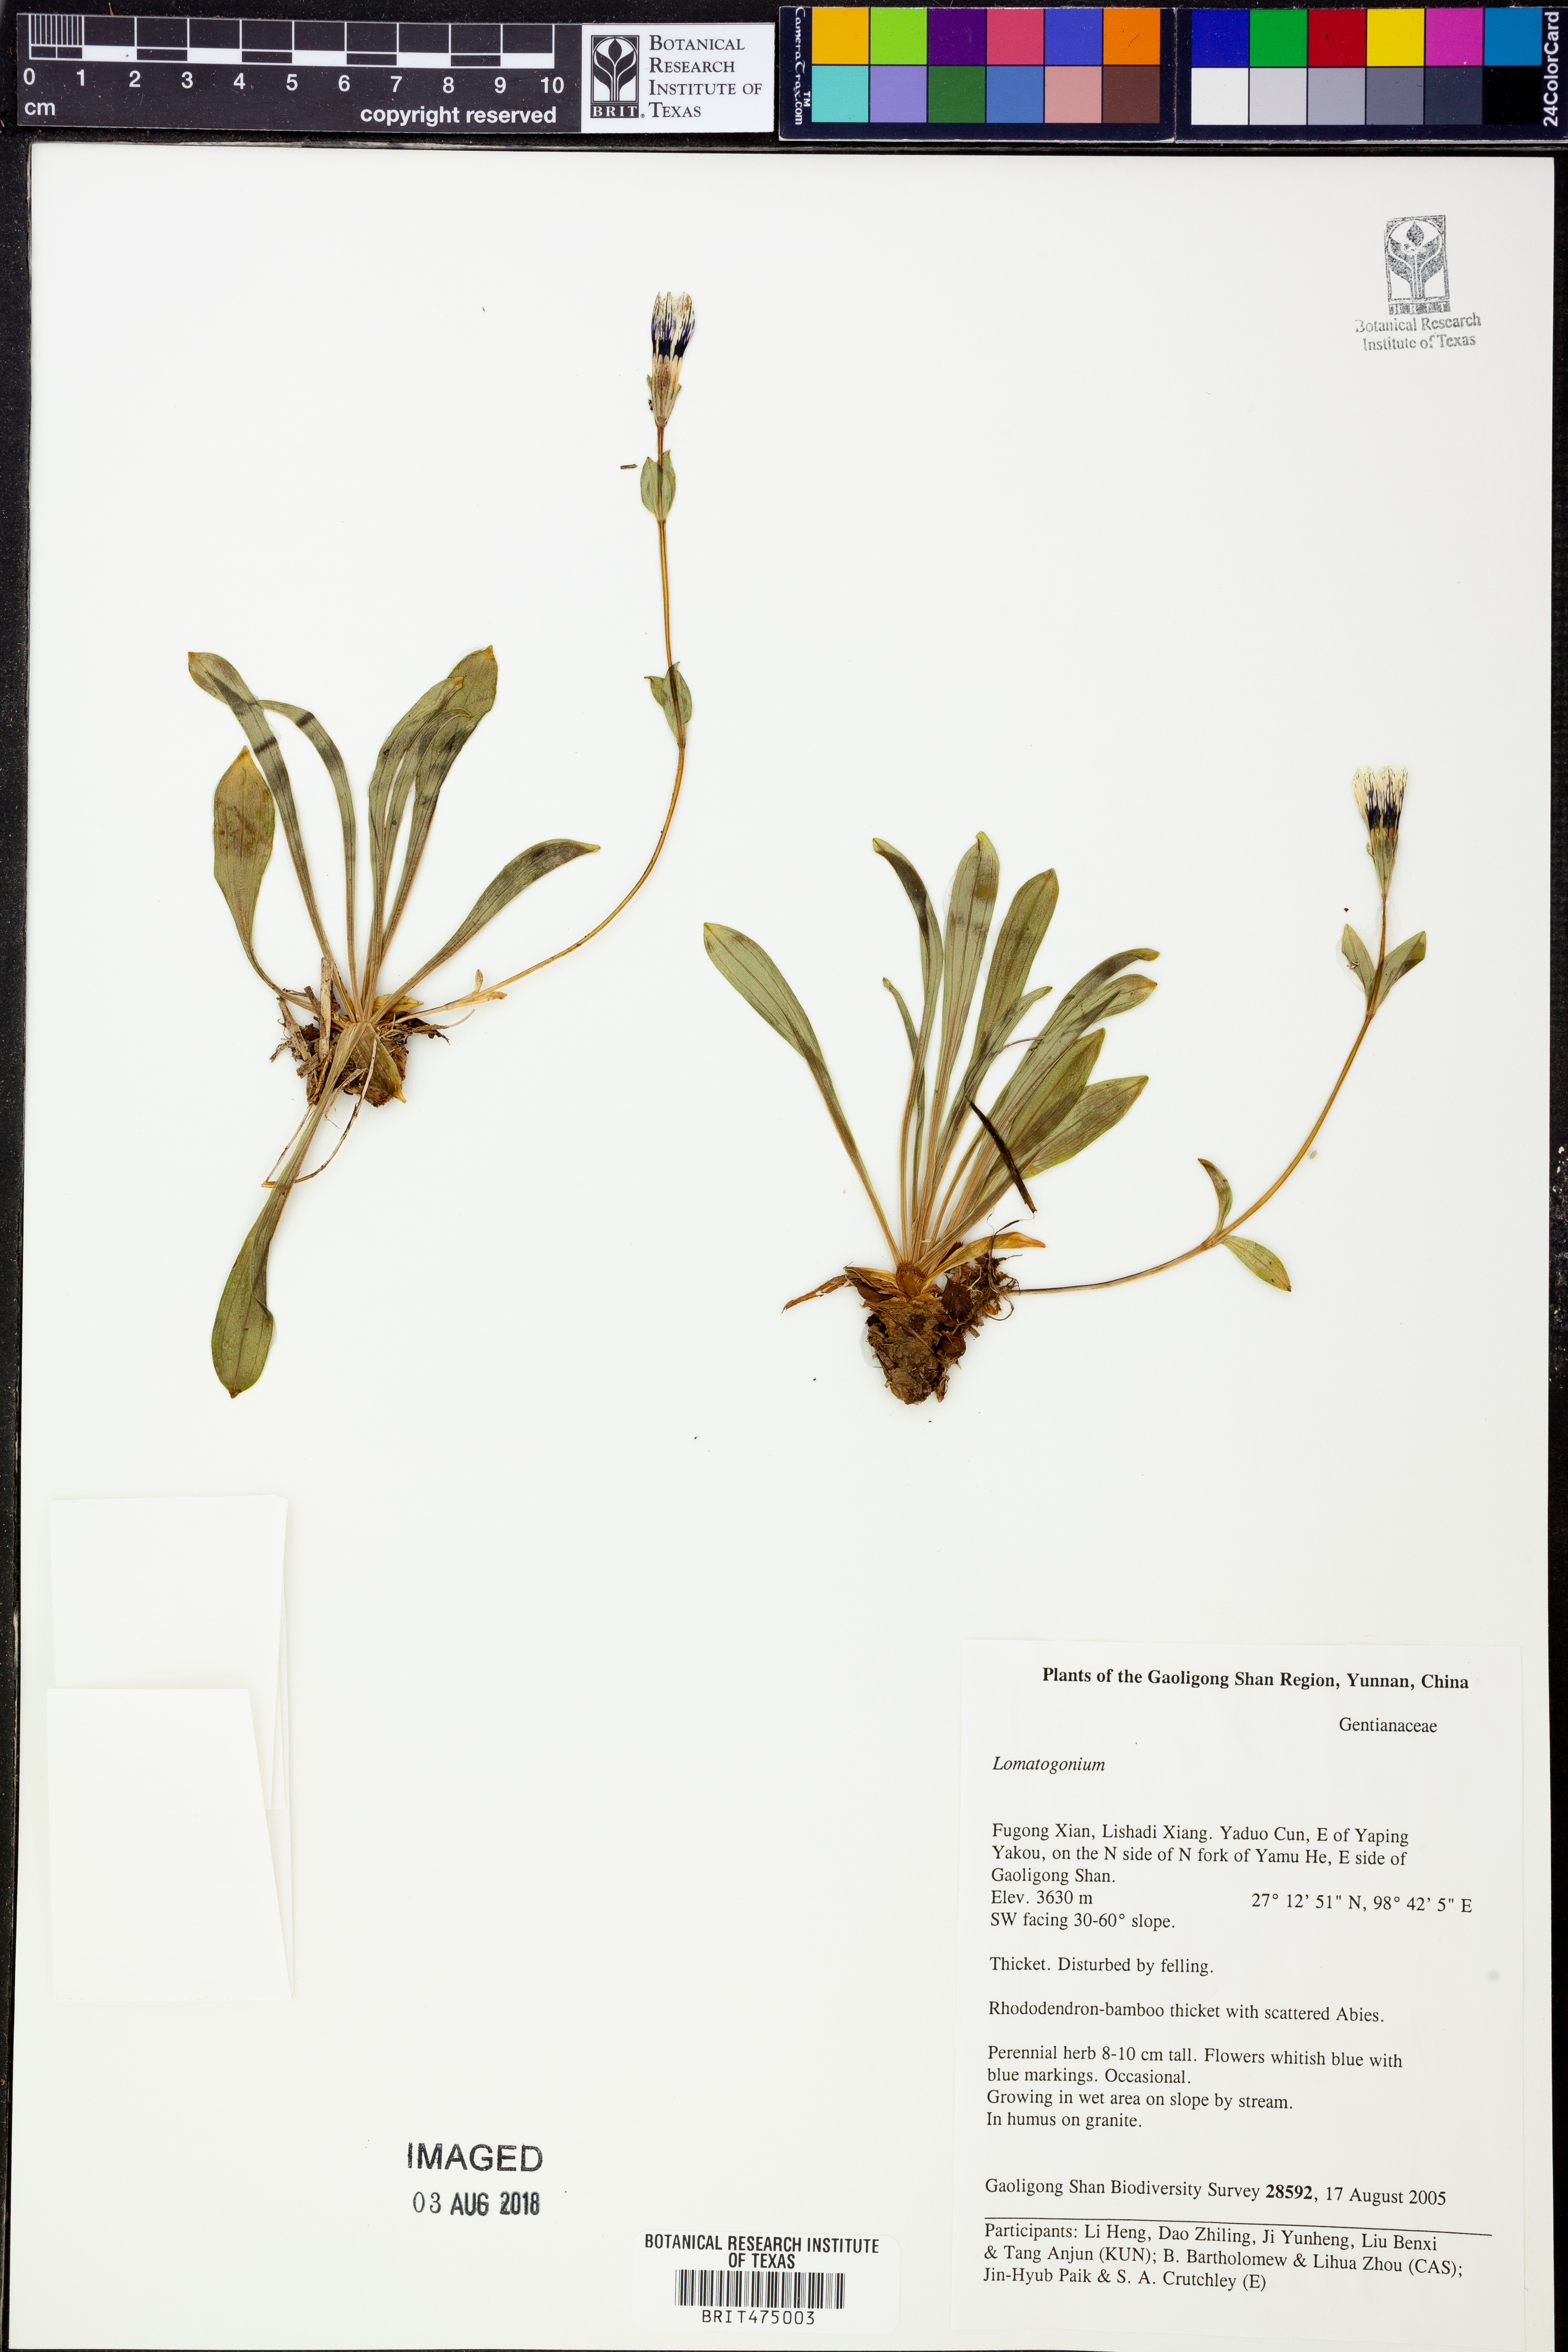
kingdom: Plantae
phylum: Tracheophyta
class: Magnoliopsida
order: Gentianales
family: Gentianaceae
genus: Lomatogonium
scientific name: Lomatogonium
